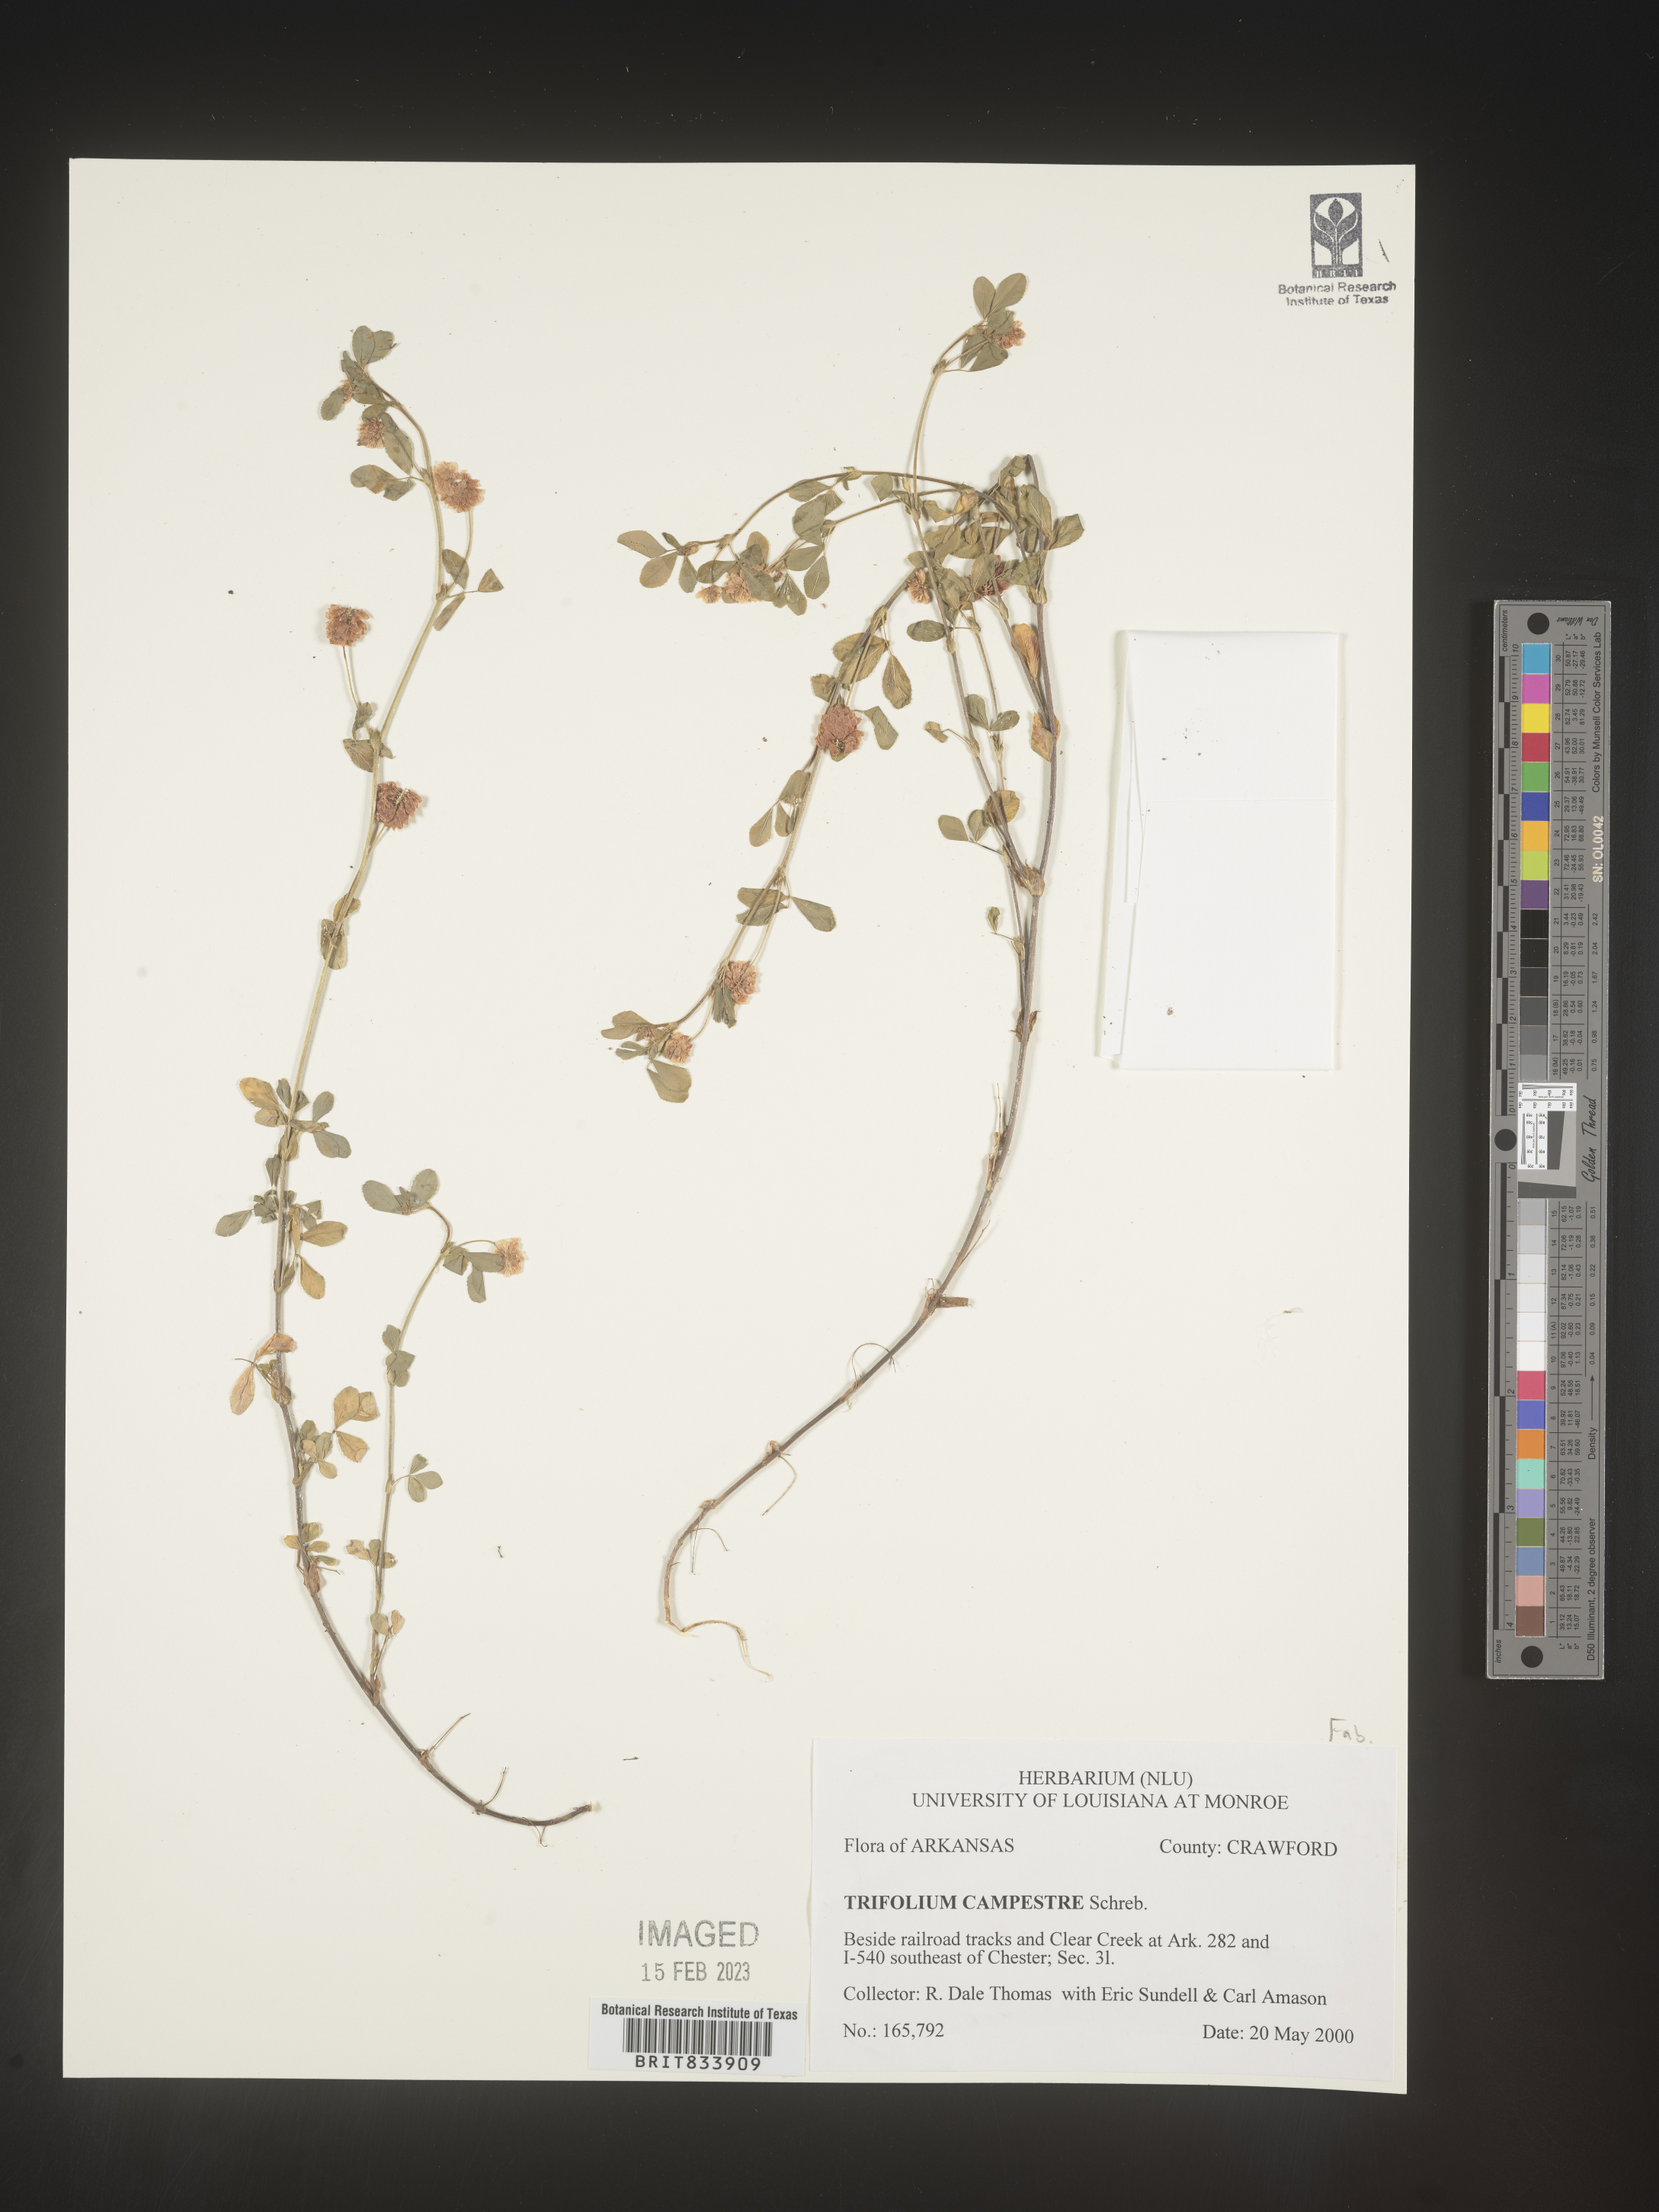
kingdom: Plantae
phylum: Tracheophyta
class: Magnoliopsida
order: Fabales
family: Fabaceae
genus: Trifolium
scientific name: Trifolium campestre
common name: Field clover
